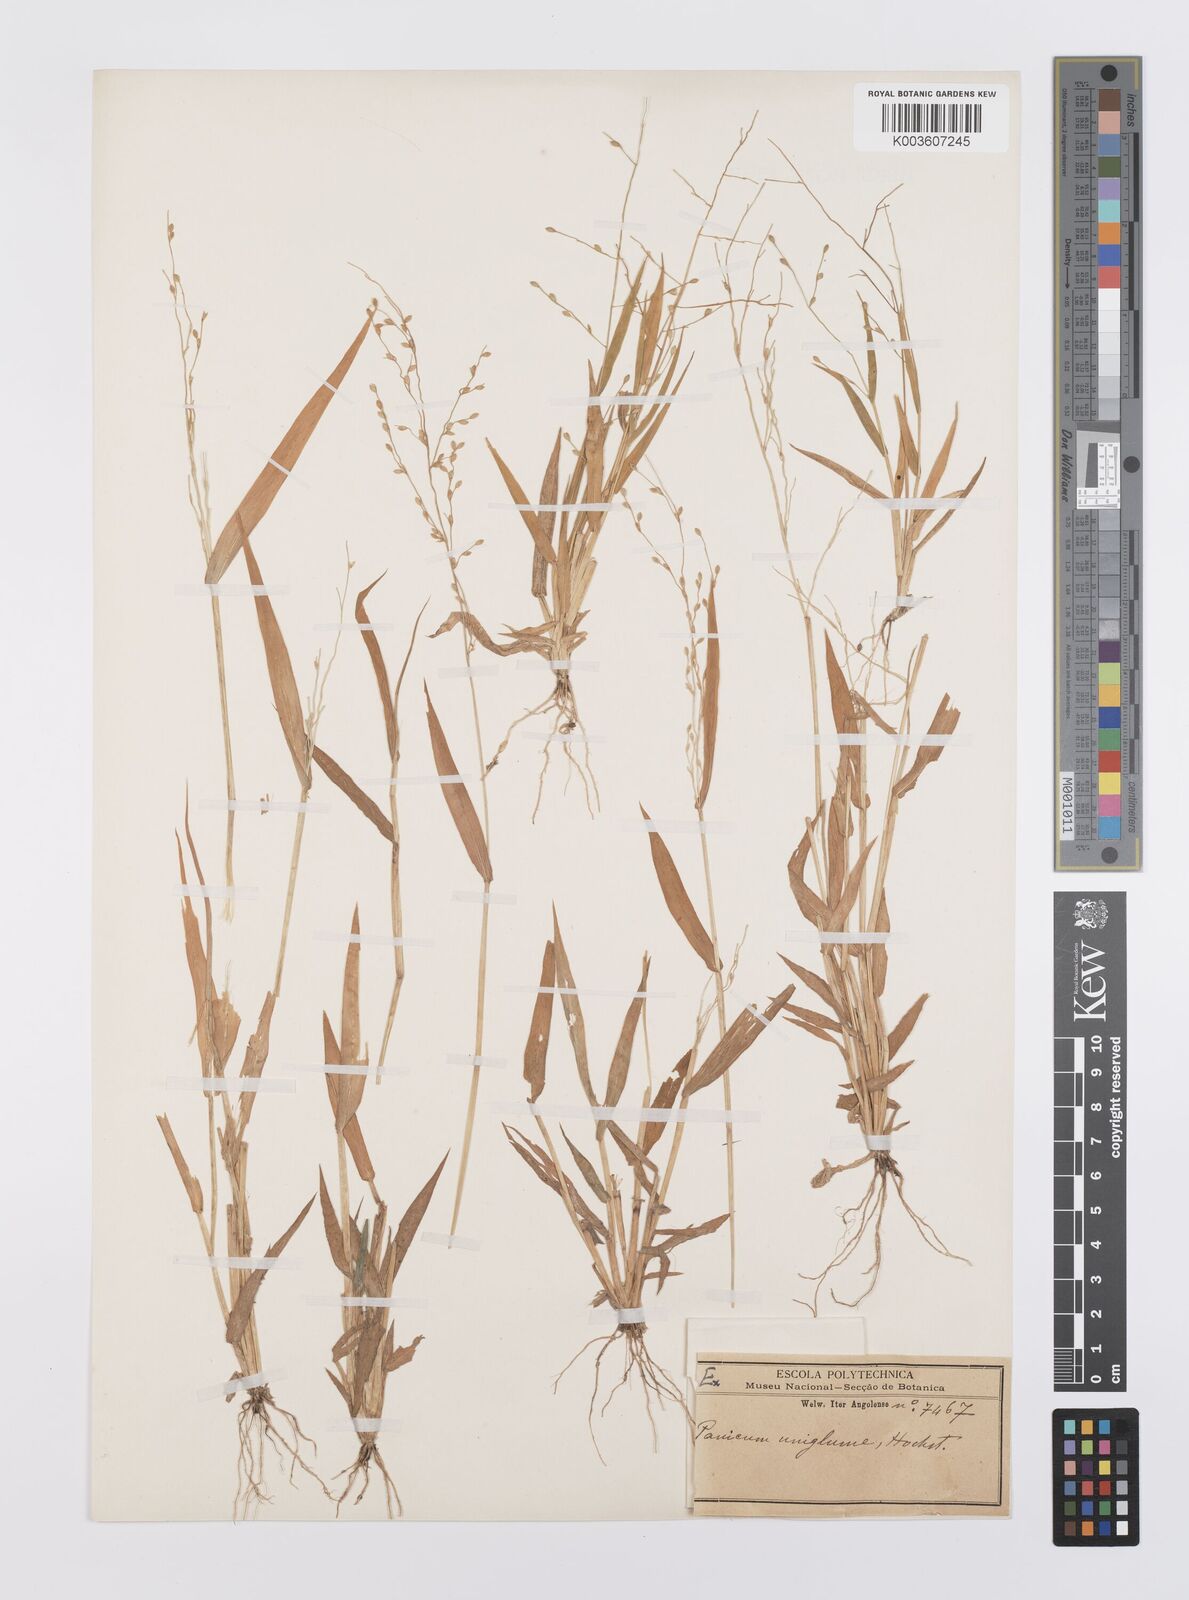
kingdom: Plantae
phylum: Tracheophyta
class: Liliopsida
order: Poales
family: Poaceae
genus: Urochloa
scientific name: Urochloa deflexa
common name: Guinea millet
